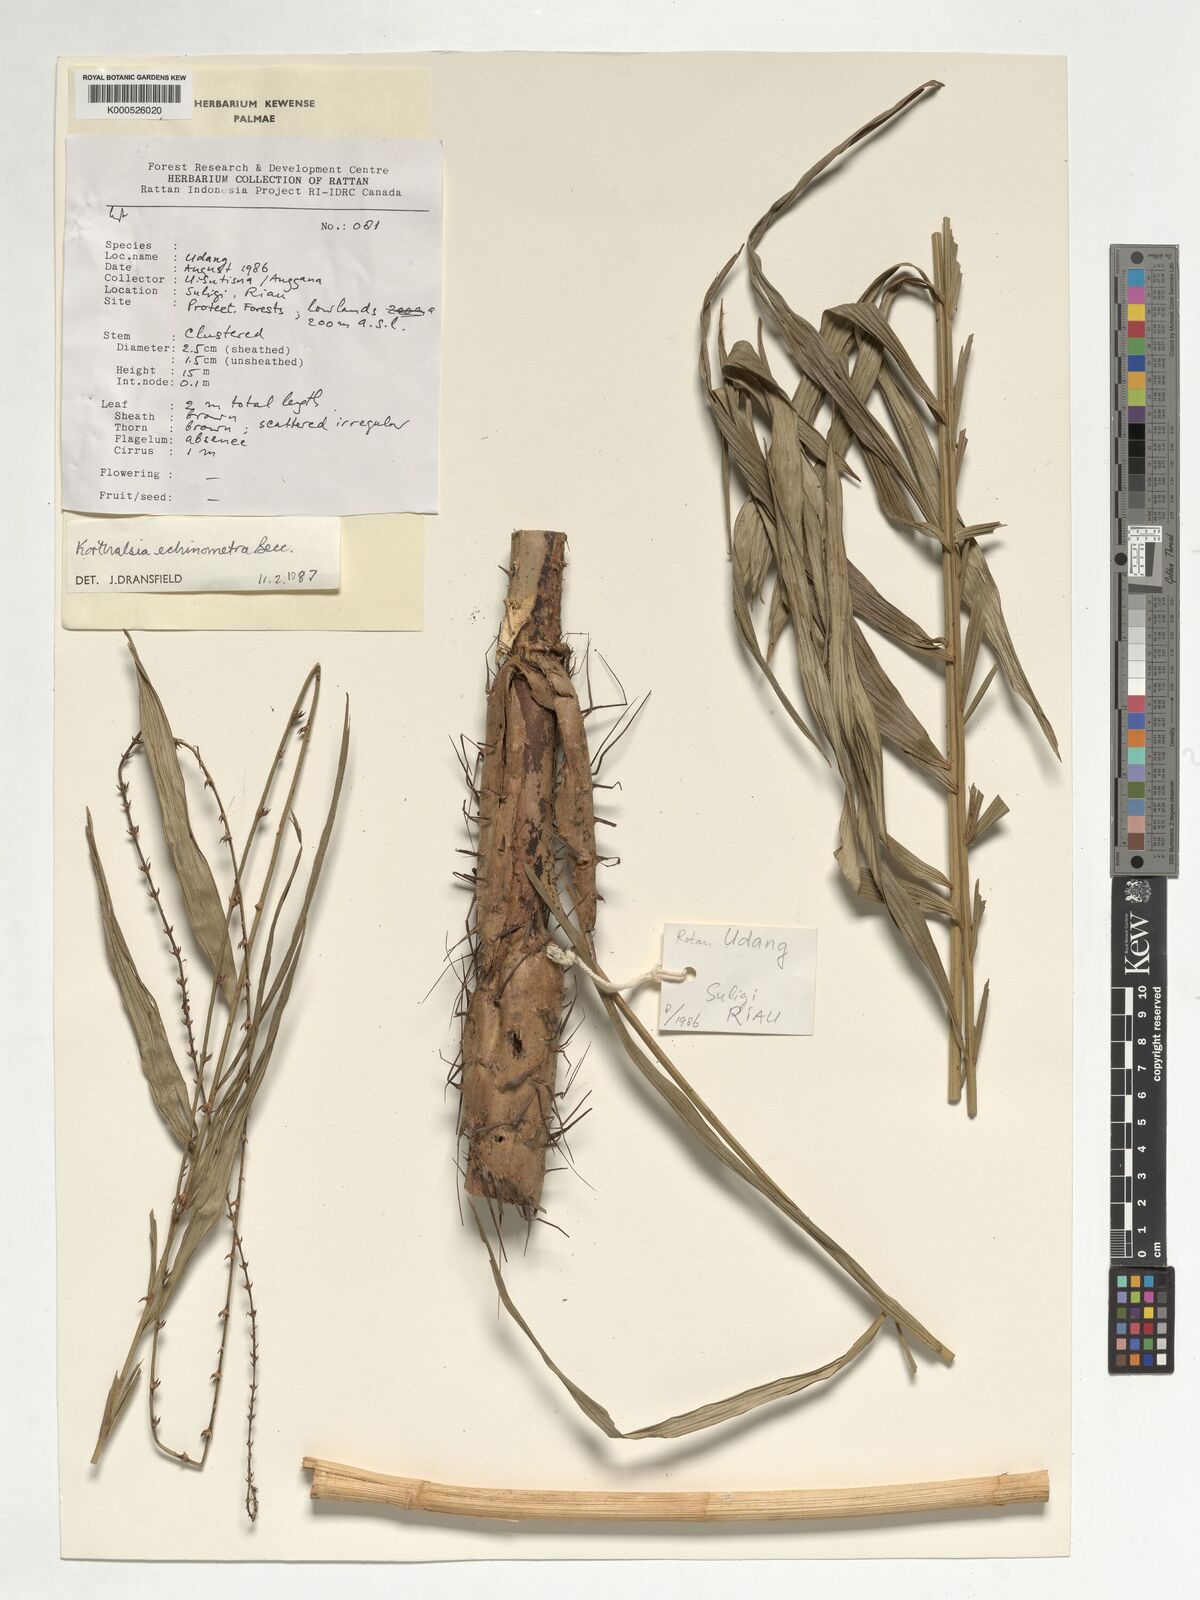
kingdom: Plantae
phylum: Tracheophyta
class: Liliopsida
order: Arecales
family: Arecaceae
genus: Korthalsia
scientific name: Korthalsia echinometra
